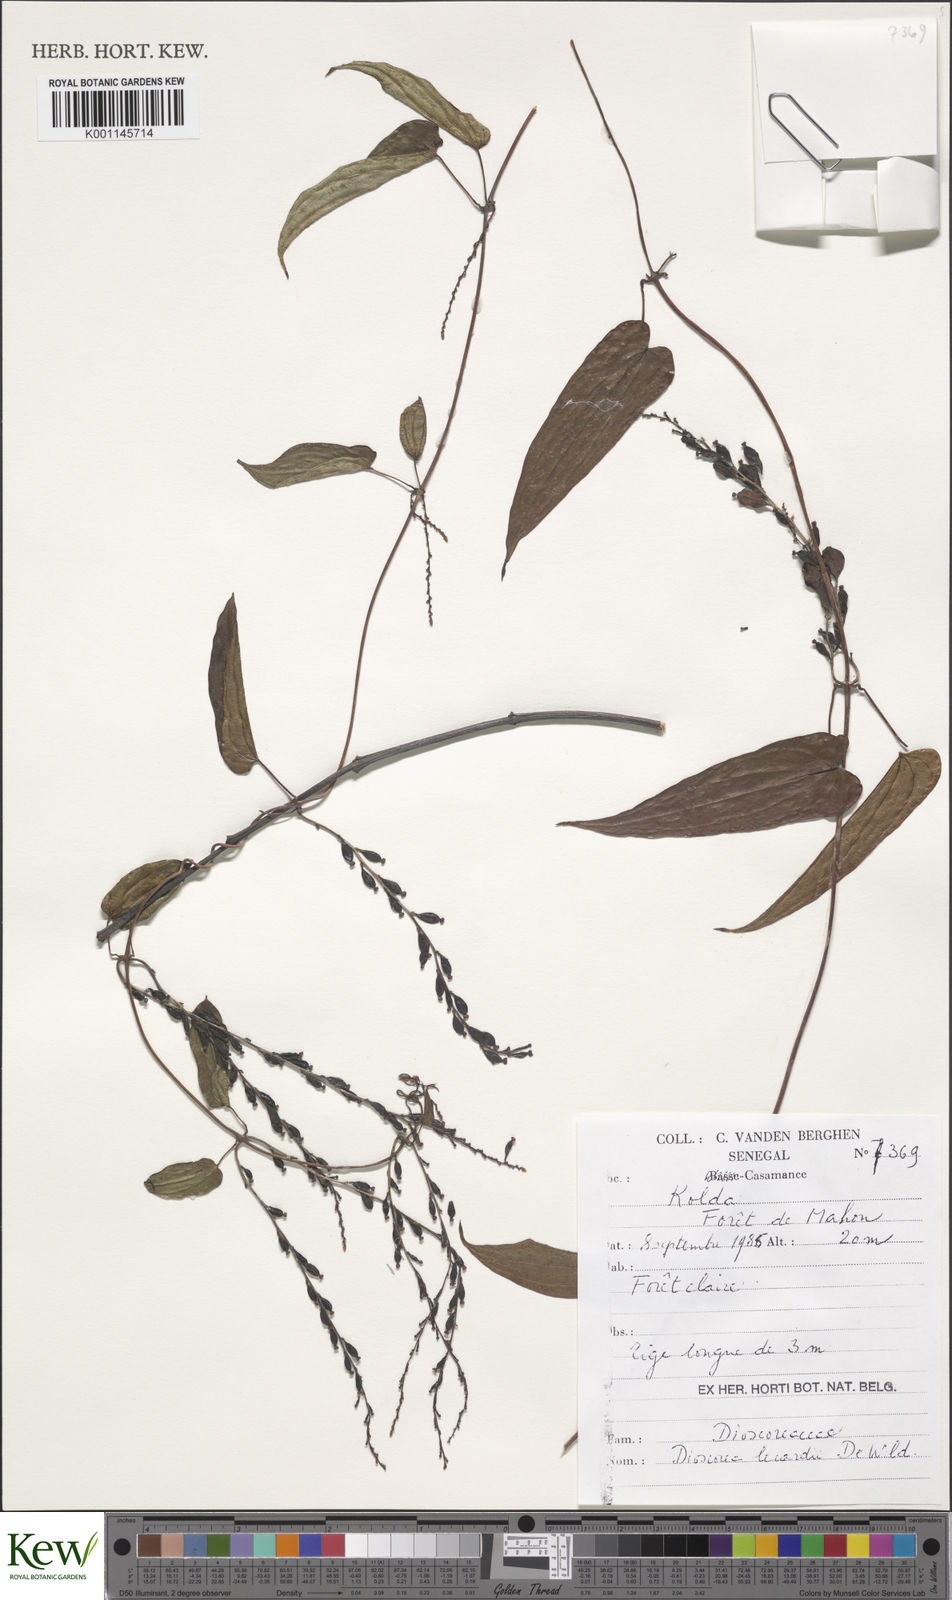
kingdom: Plantae
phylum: Tracheophyta
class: Liliopsida
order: Dioscoreales
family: Dioscoreaceae
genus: Dioscorea
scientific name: Dioscorea sagittifolia
